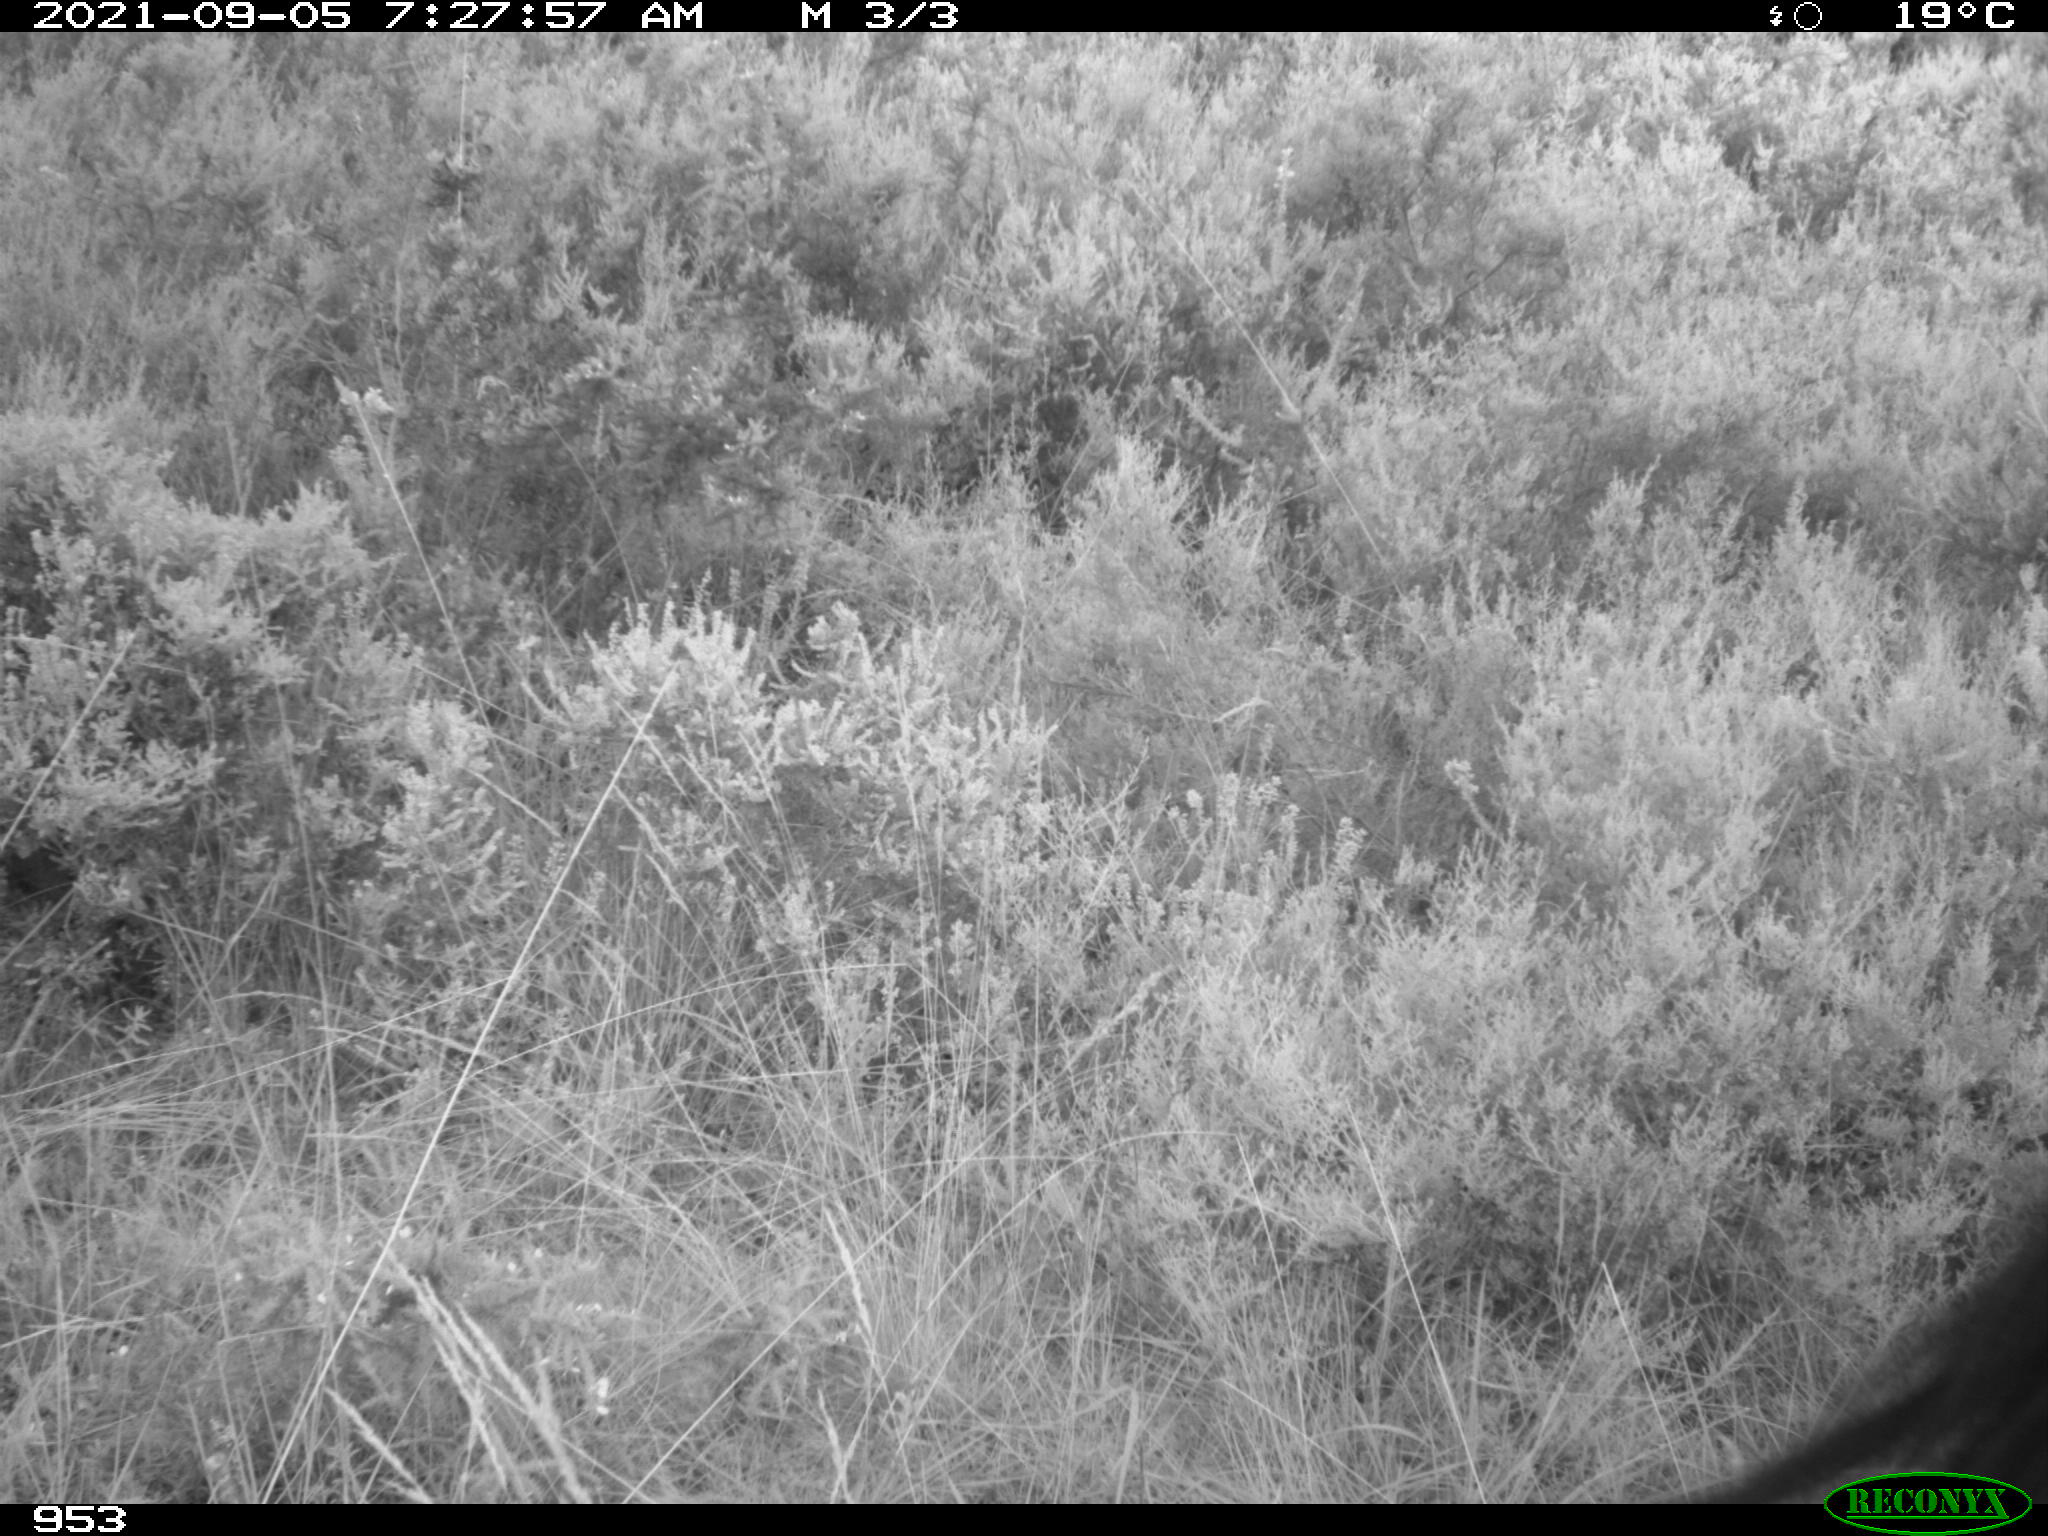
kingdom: Animalia
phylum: Chordata
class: Mammalia
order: Perissodactyla
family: Equidae
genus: Equus
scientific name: Equus caballus
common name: Horse
